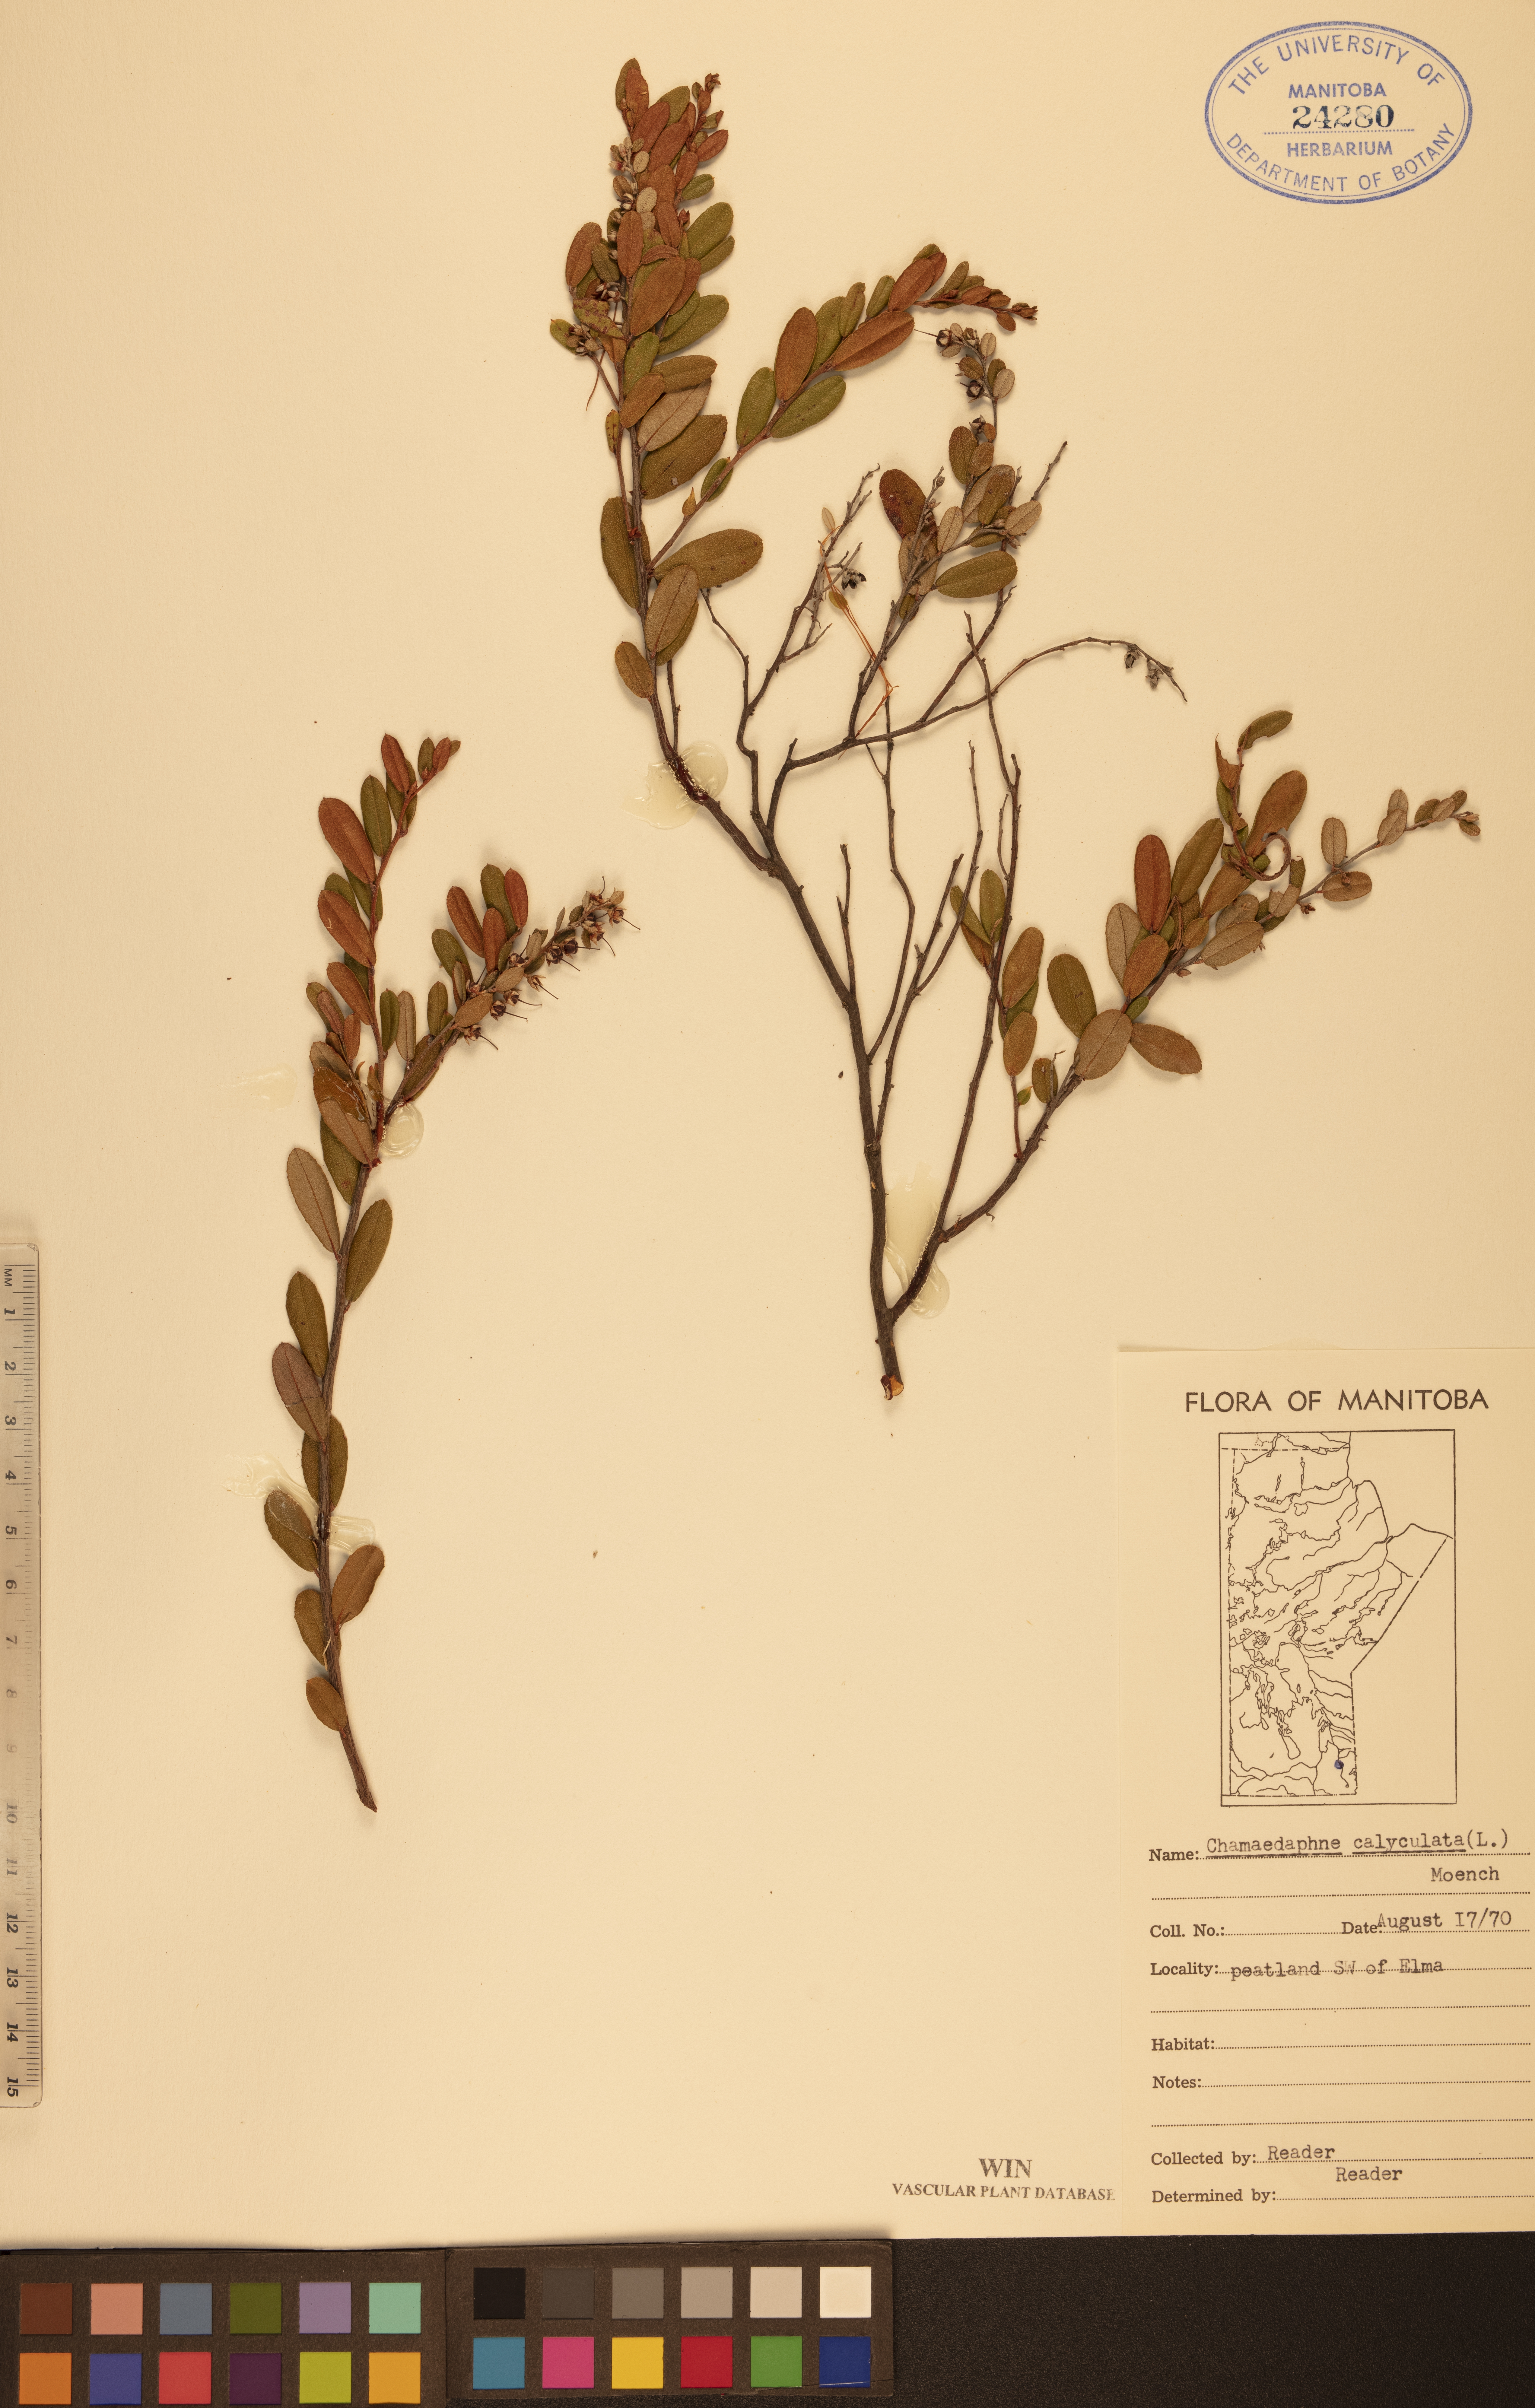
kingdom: Plantae
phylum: Tracheophyta
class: Magnoliopsida
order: Ericales
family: Ericaceae
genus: Chamaedaphne
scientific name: Chamaedaphne calyculata
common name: Leatherleaf
